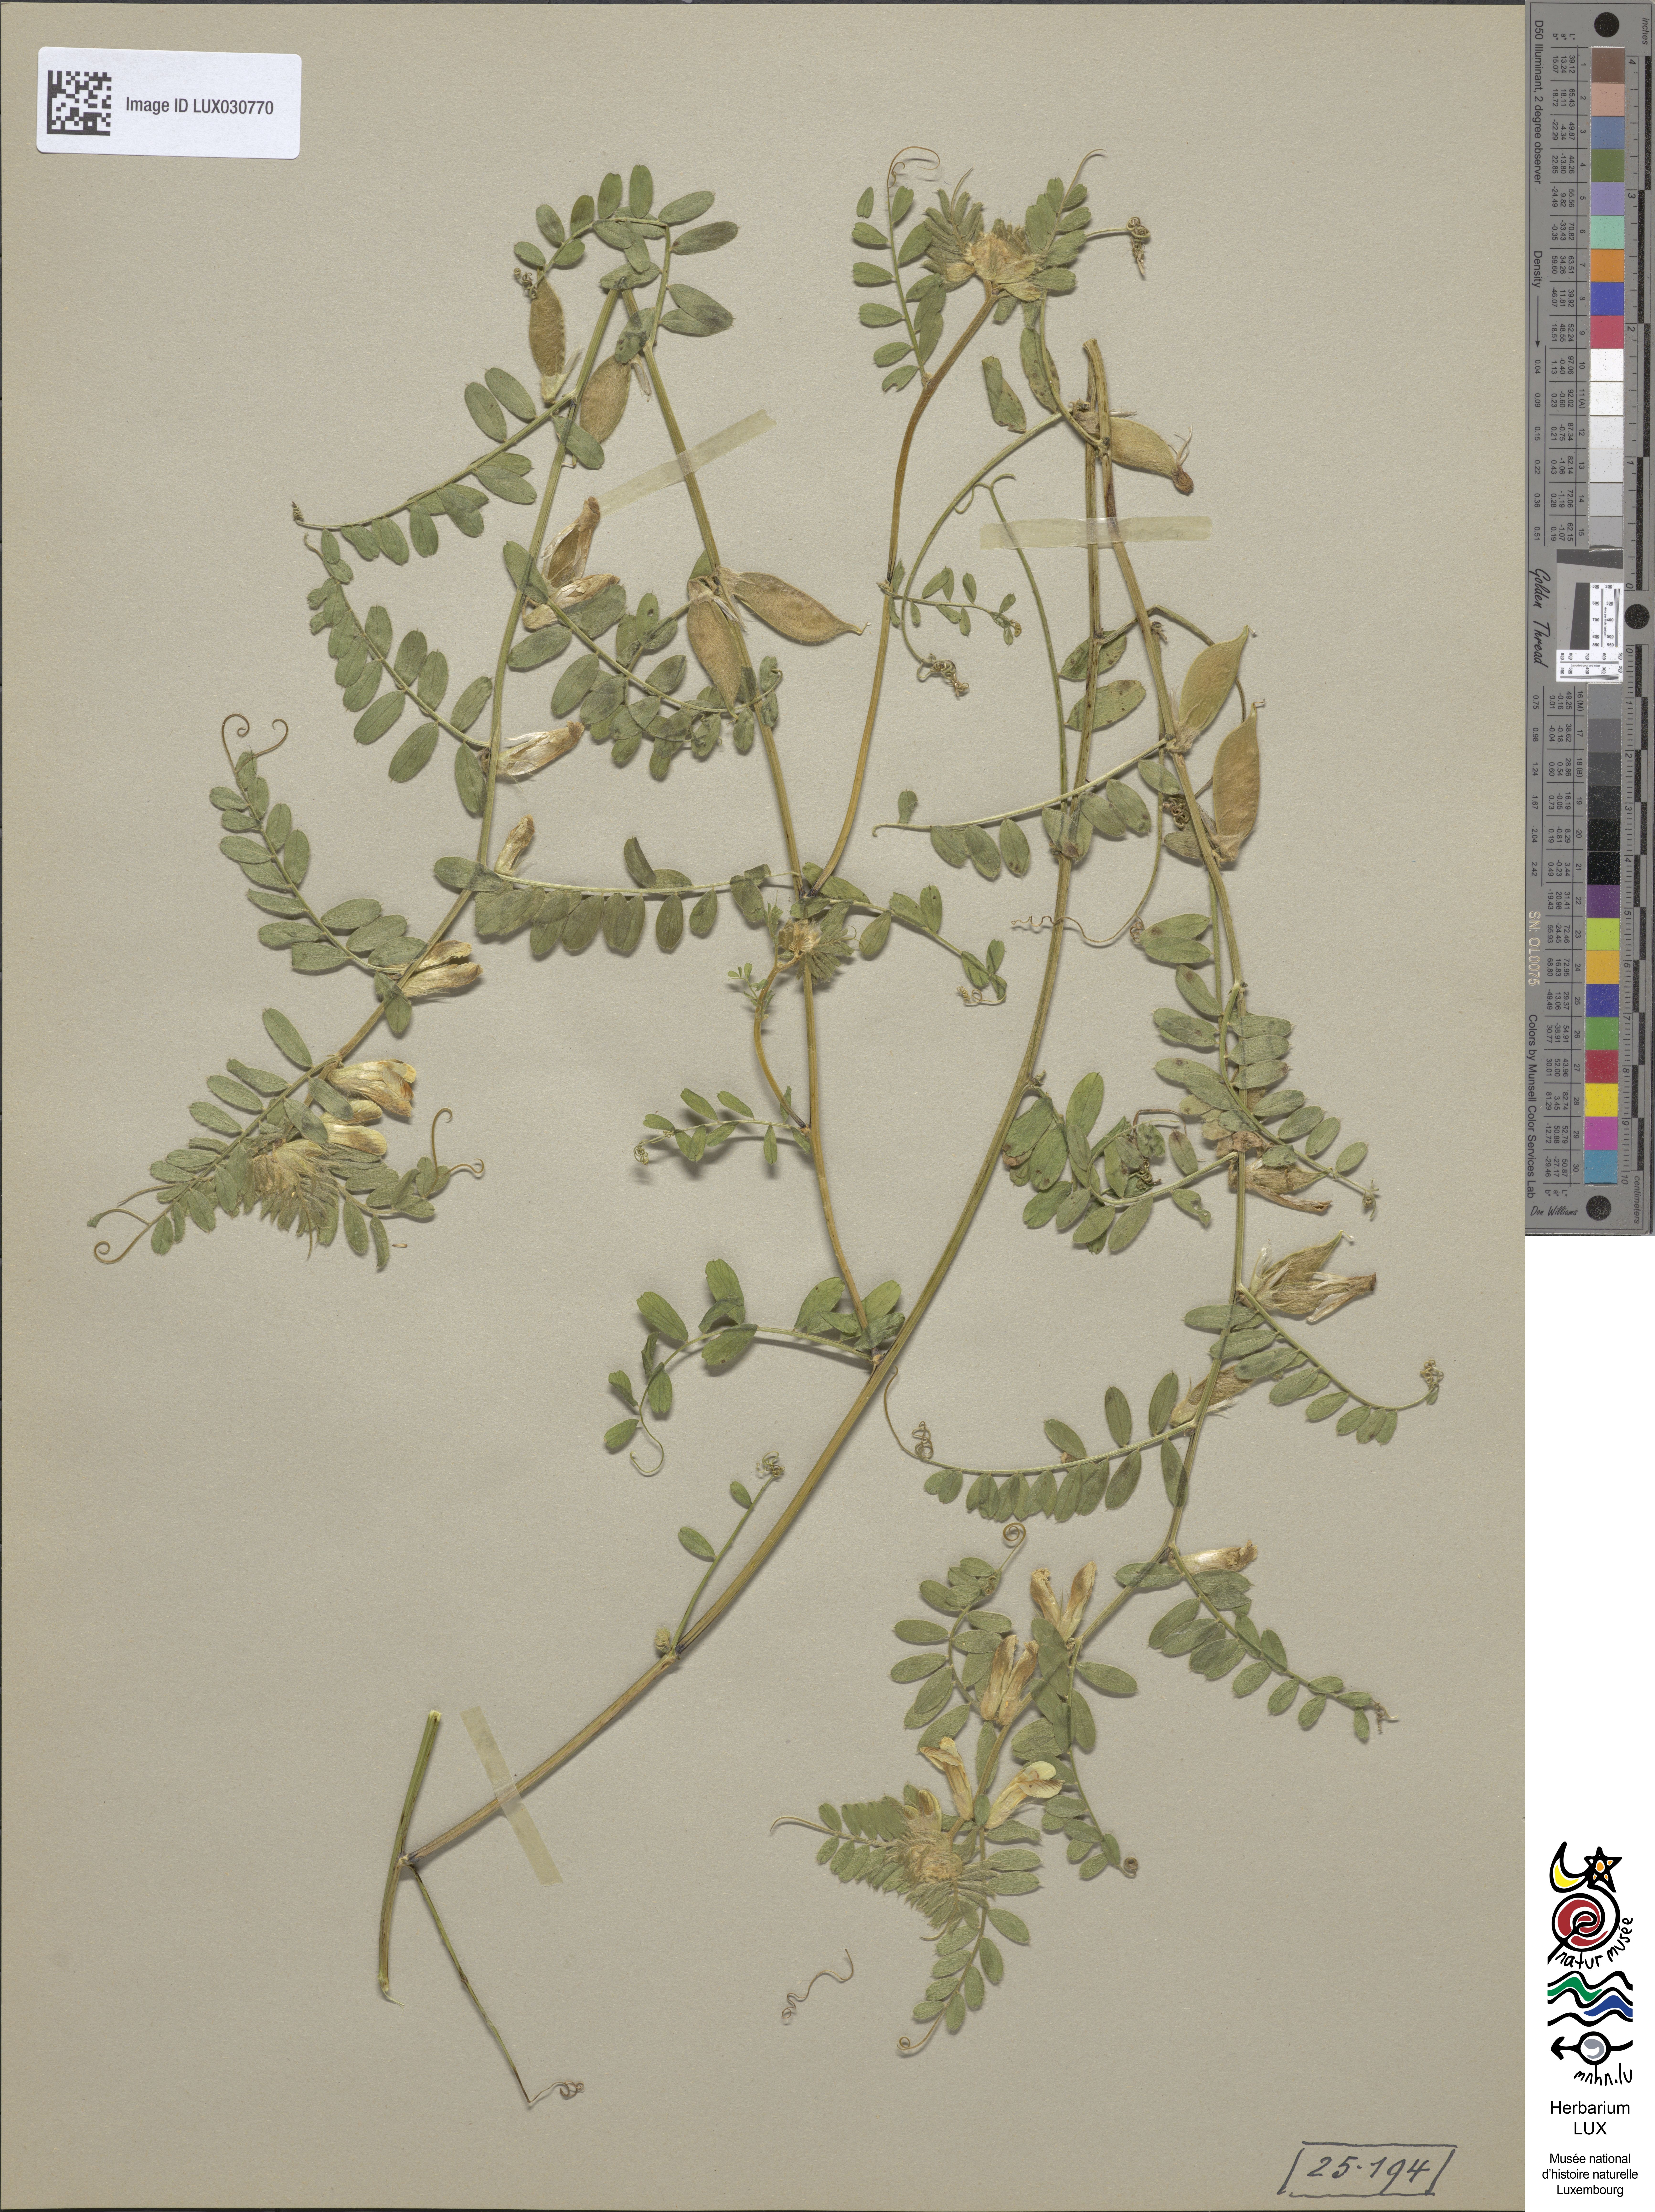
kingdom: Plantae
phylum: Tracheophyta
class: Magnoliopsida
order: Fabales
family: Fabaceae
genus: Vicia
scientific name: Vicia pannonica
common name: Hungarian vetch
